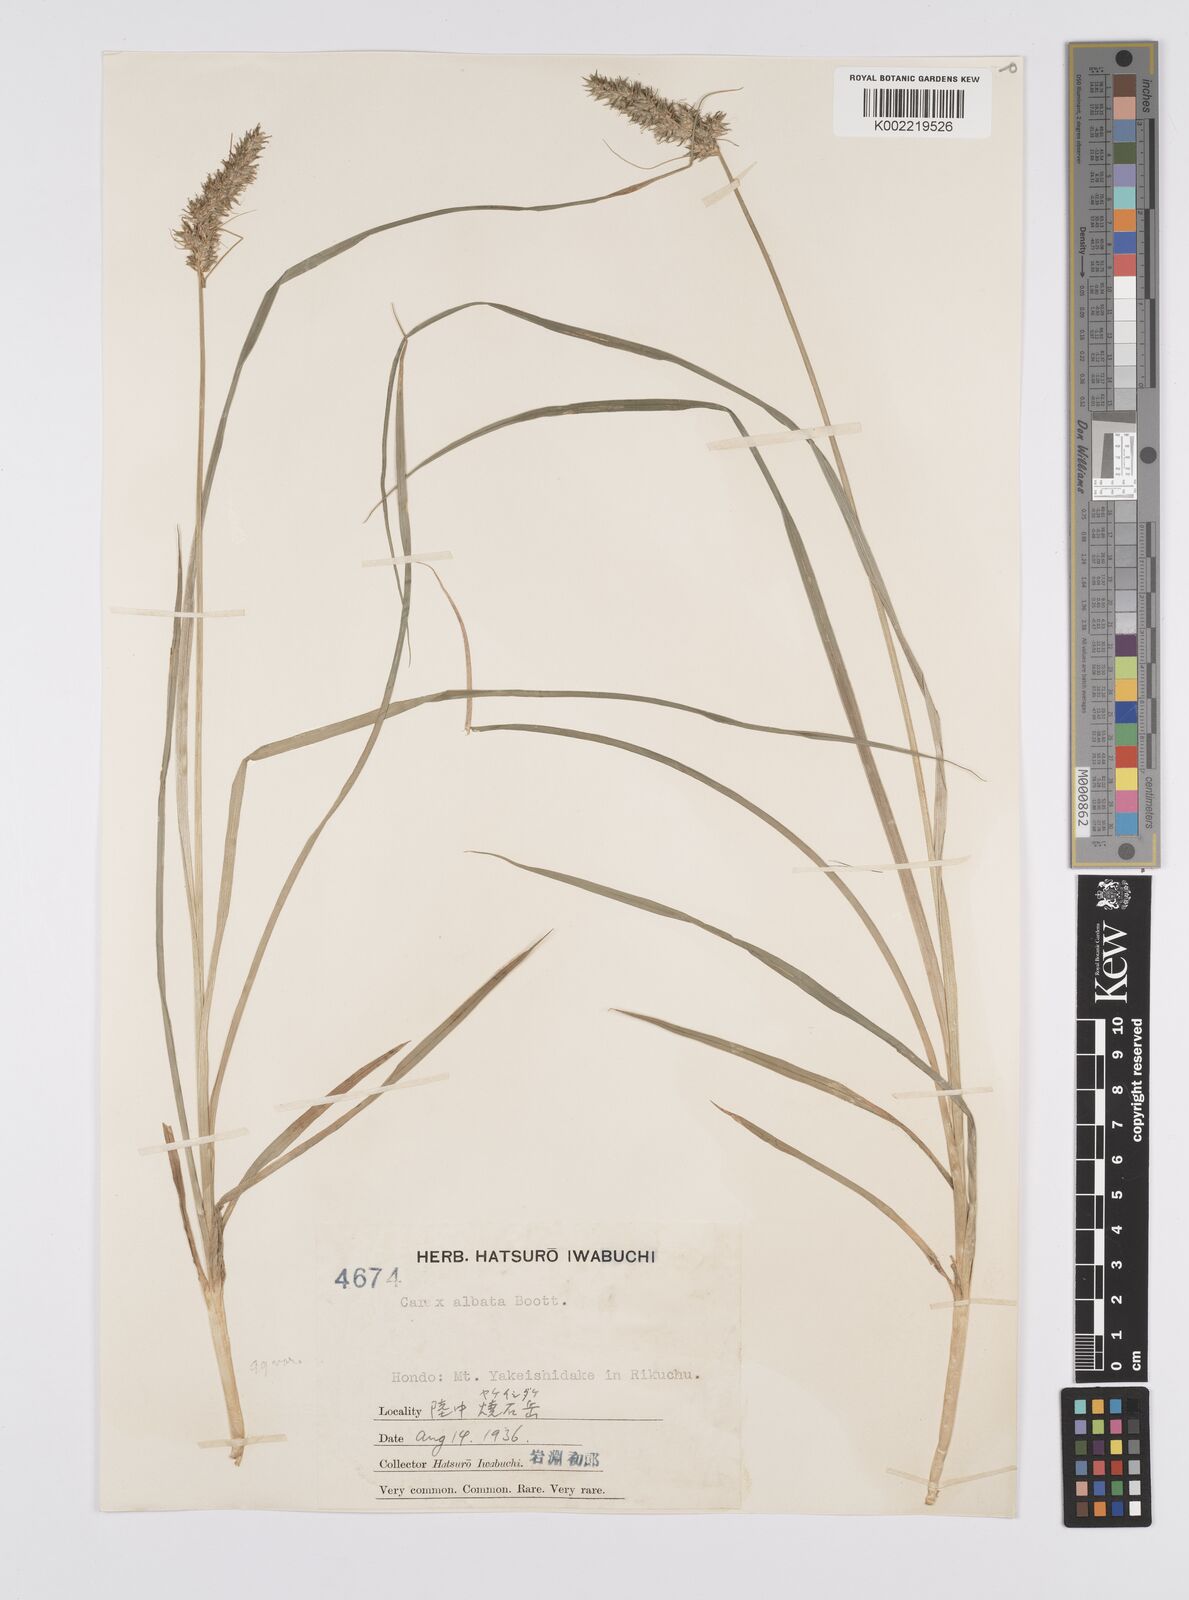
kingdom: Plantae
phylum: Tracheophyta
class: Liliopsida
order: Poales
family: Cyperaceae
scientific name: Cyperaceae
